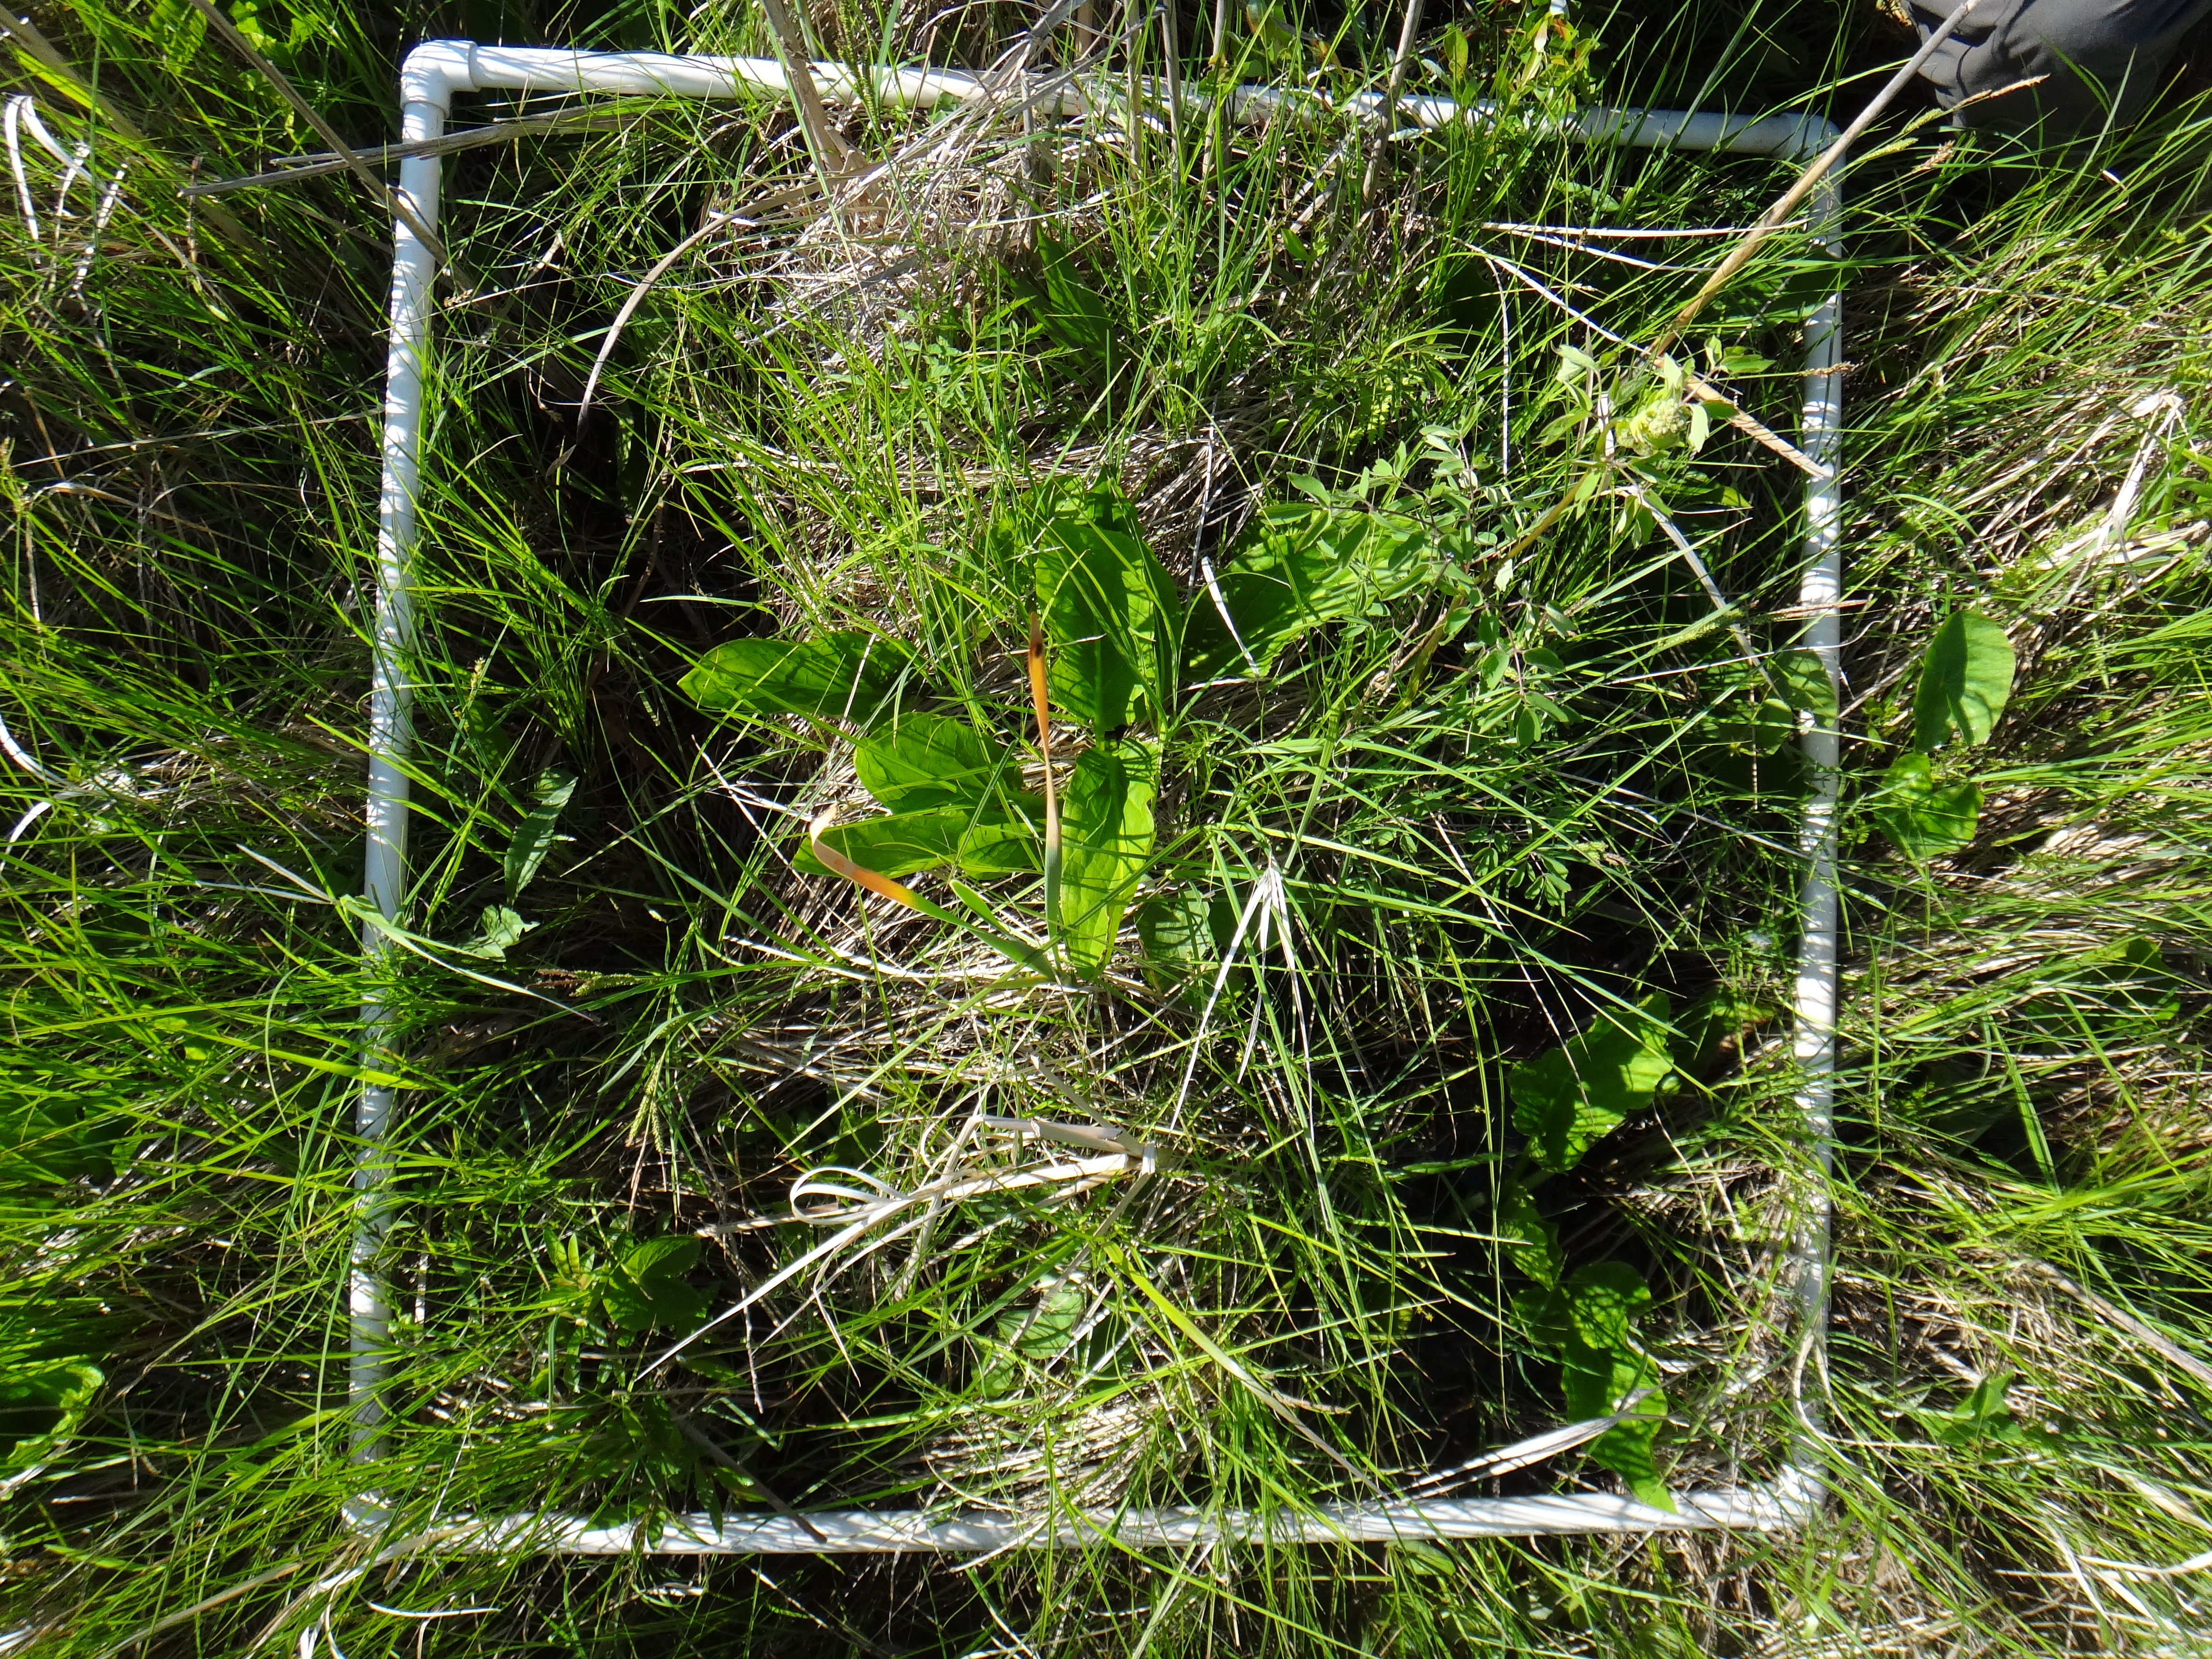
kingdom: Plantae
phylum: Tracheophyta
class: Polypodiopsida
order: Polypodiales
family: Thelypteridaceae
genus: Thelypteris
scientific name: Thelypteris palustris
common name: Marsh fern
